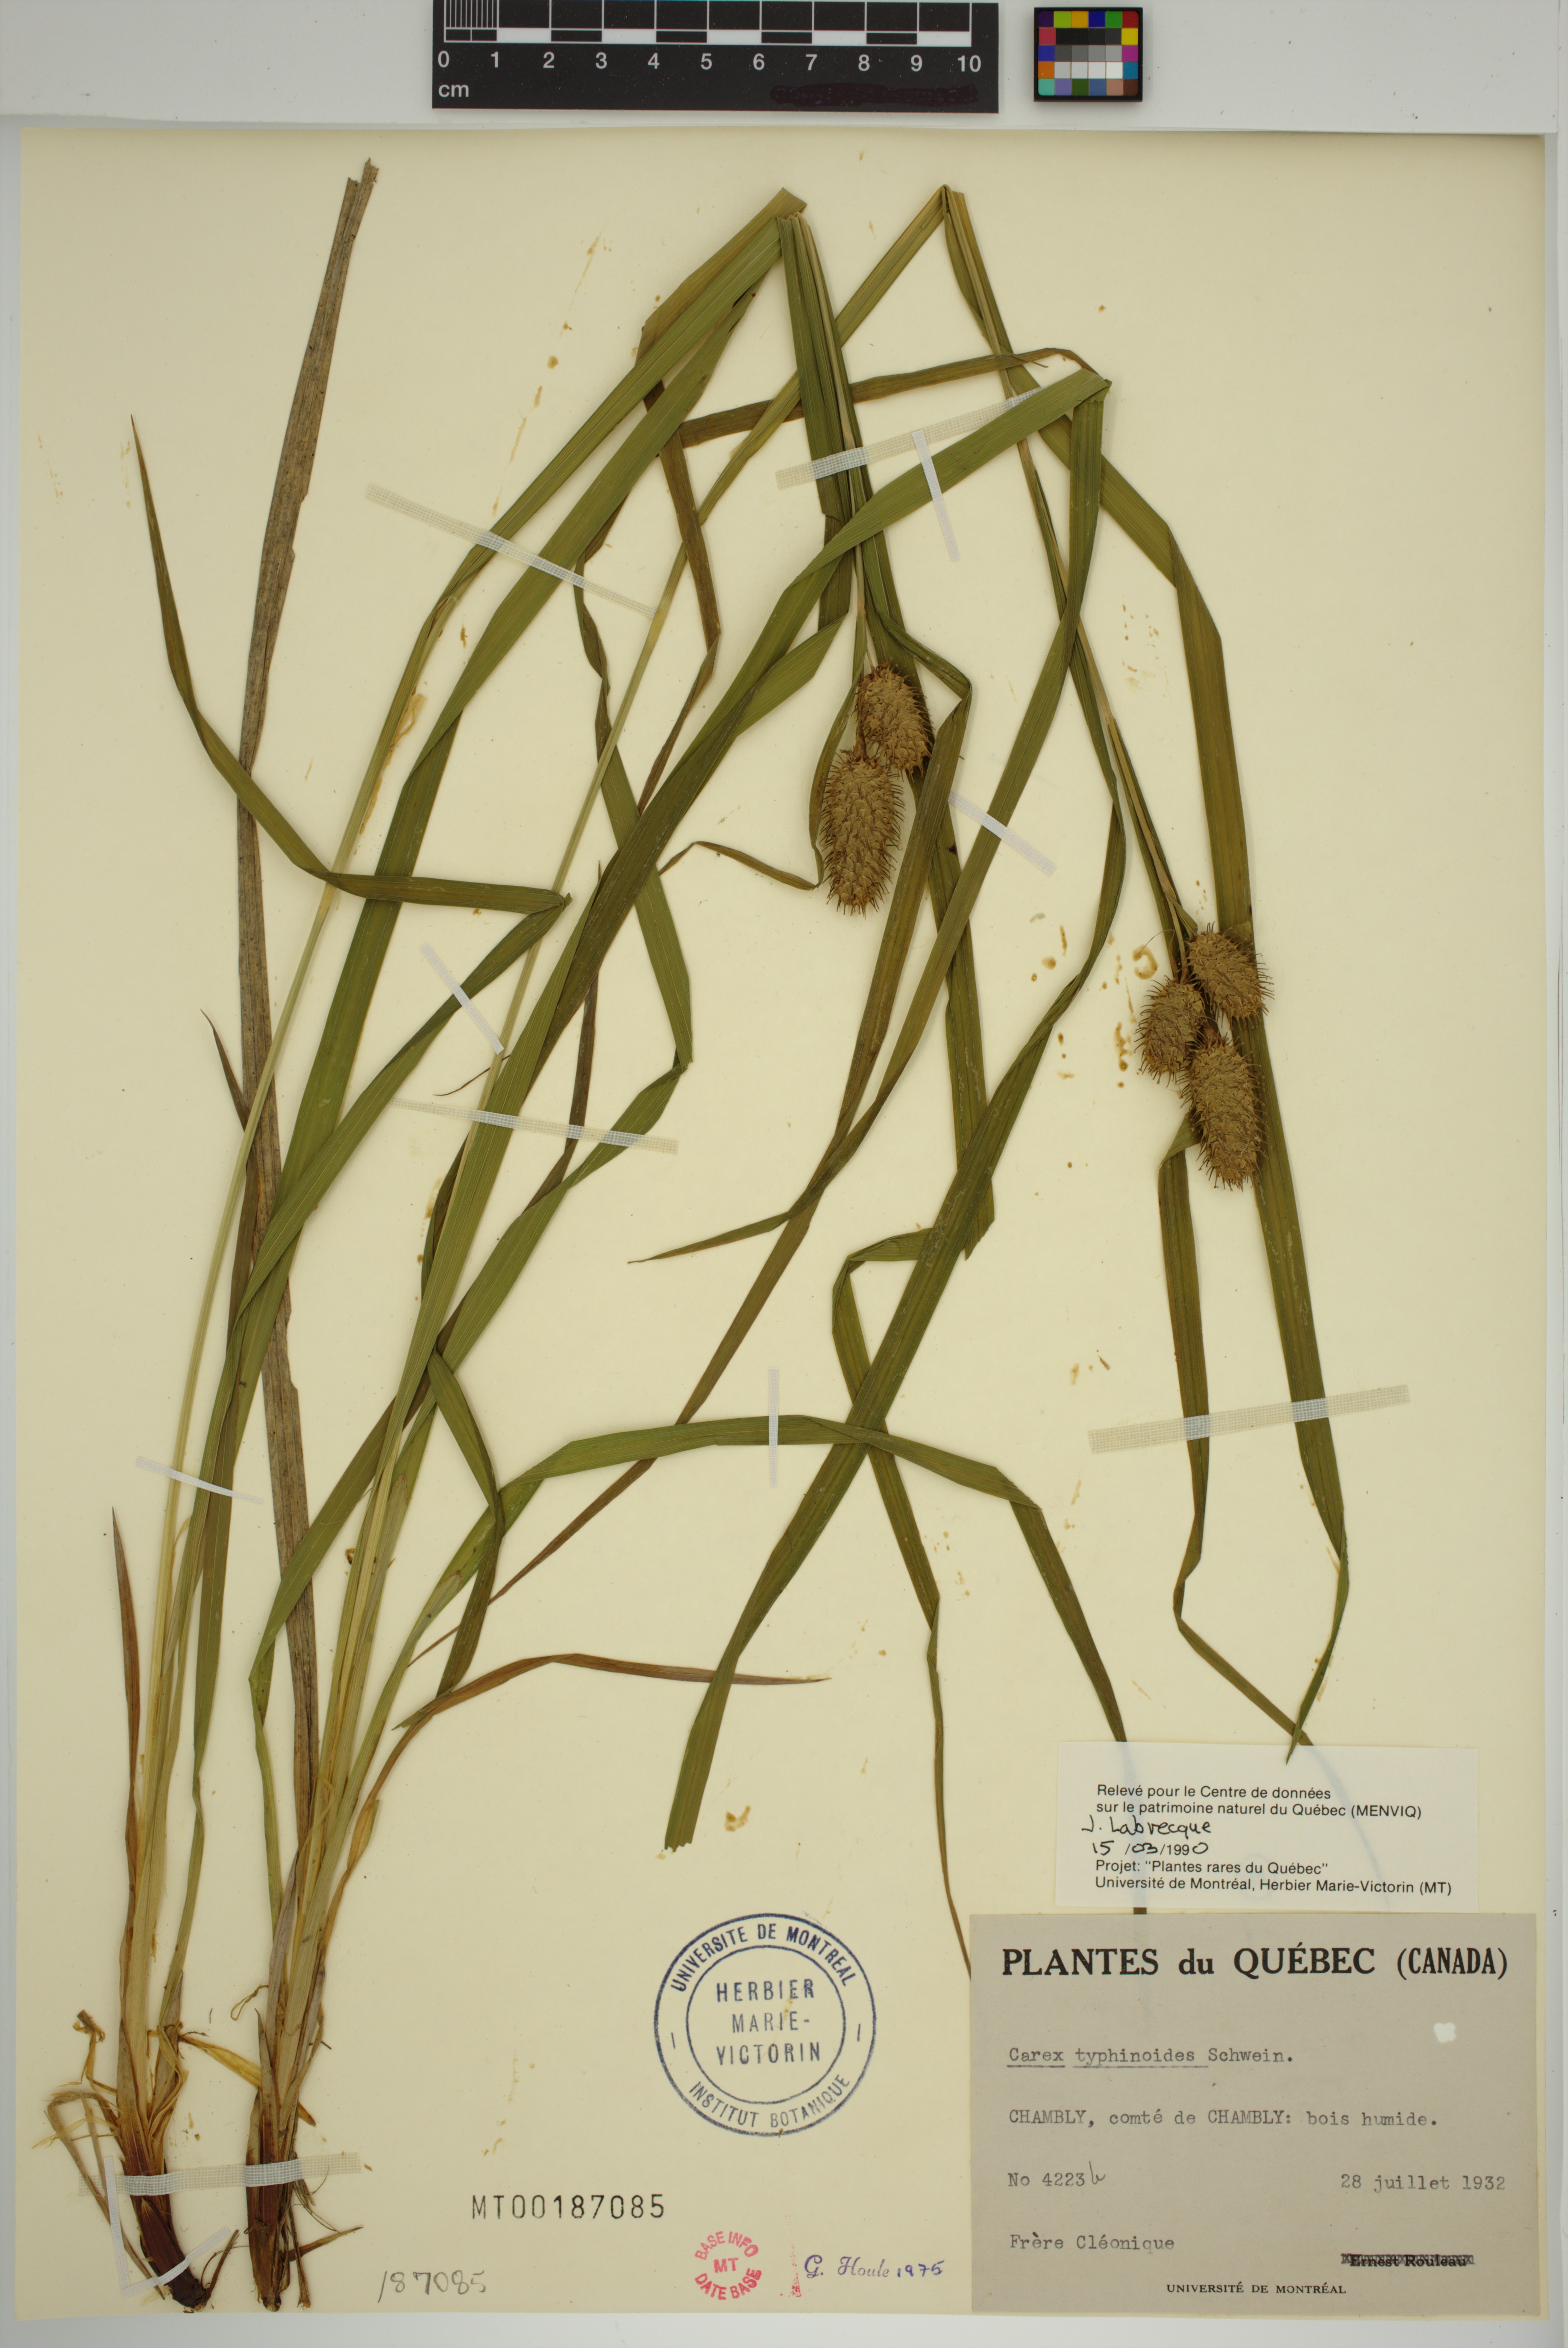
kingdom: Plantae
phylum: Tracheophyta
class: Liliopsida
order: Poales
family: Cyperaceae
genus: Carex
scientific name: Carex typhina
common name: Cattail sedge
